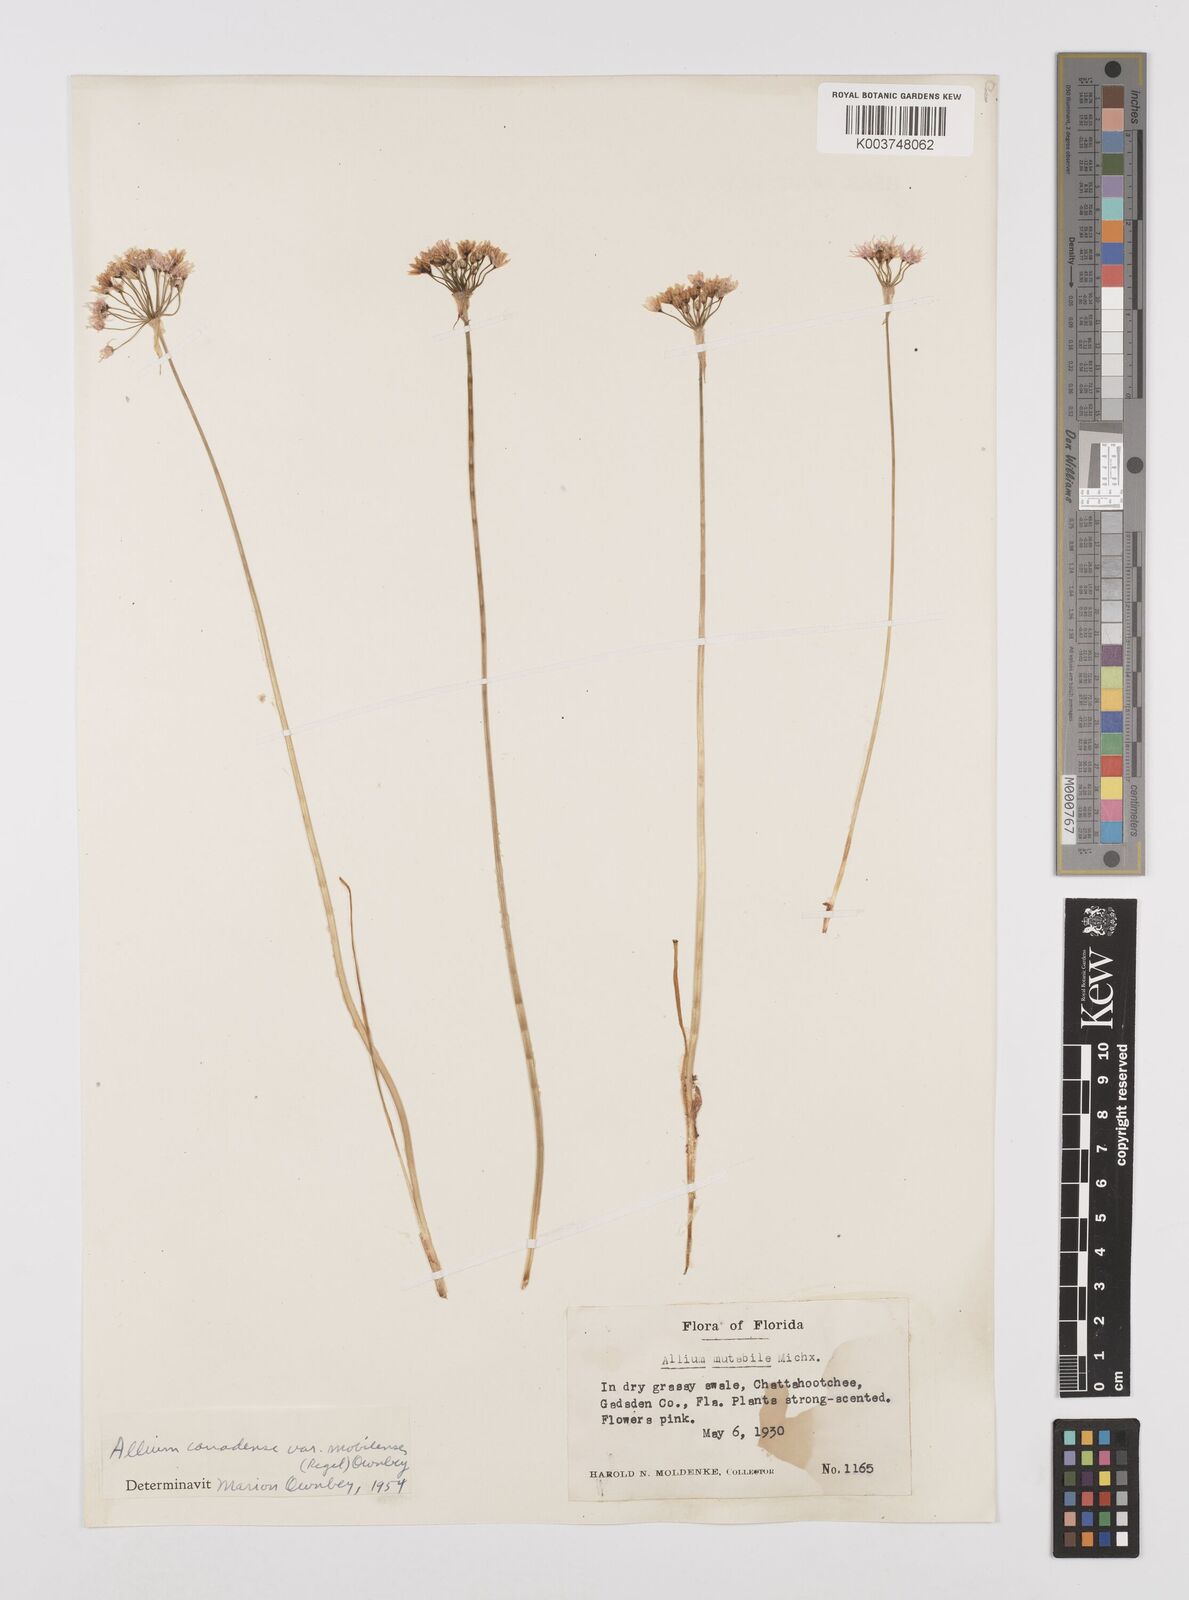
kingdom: Plantae
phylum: Tracheophyta
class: Liliopsida
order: Asparagales
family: Amaryllidaceae
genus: Allium
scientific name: Allium canadense
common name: Meadow garlic
